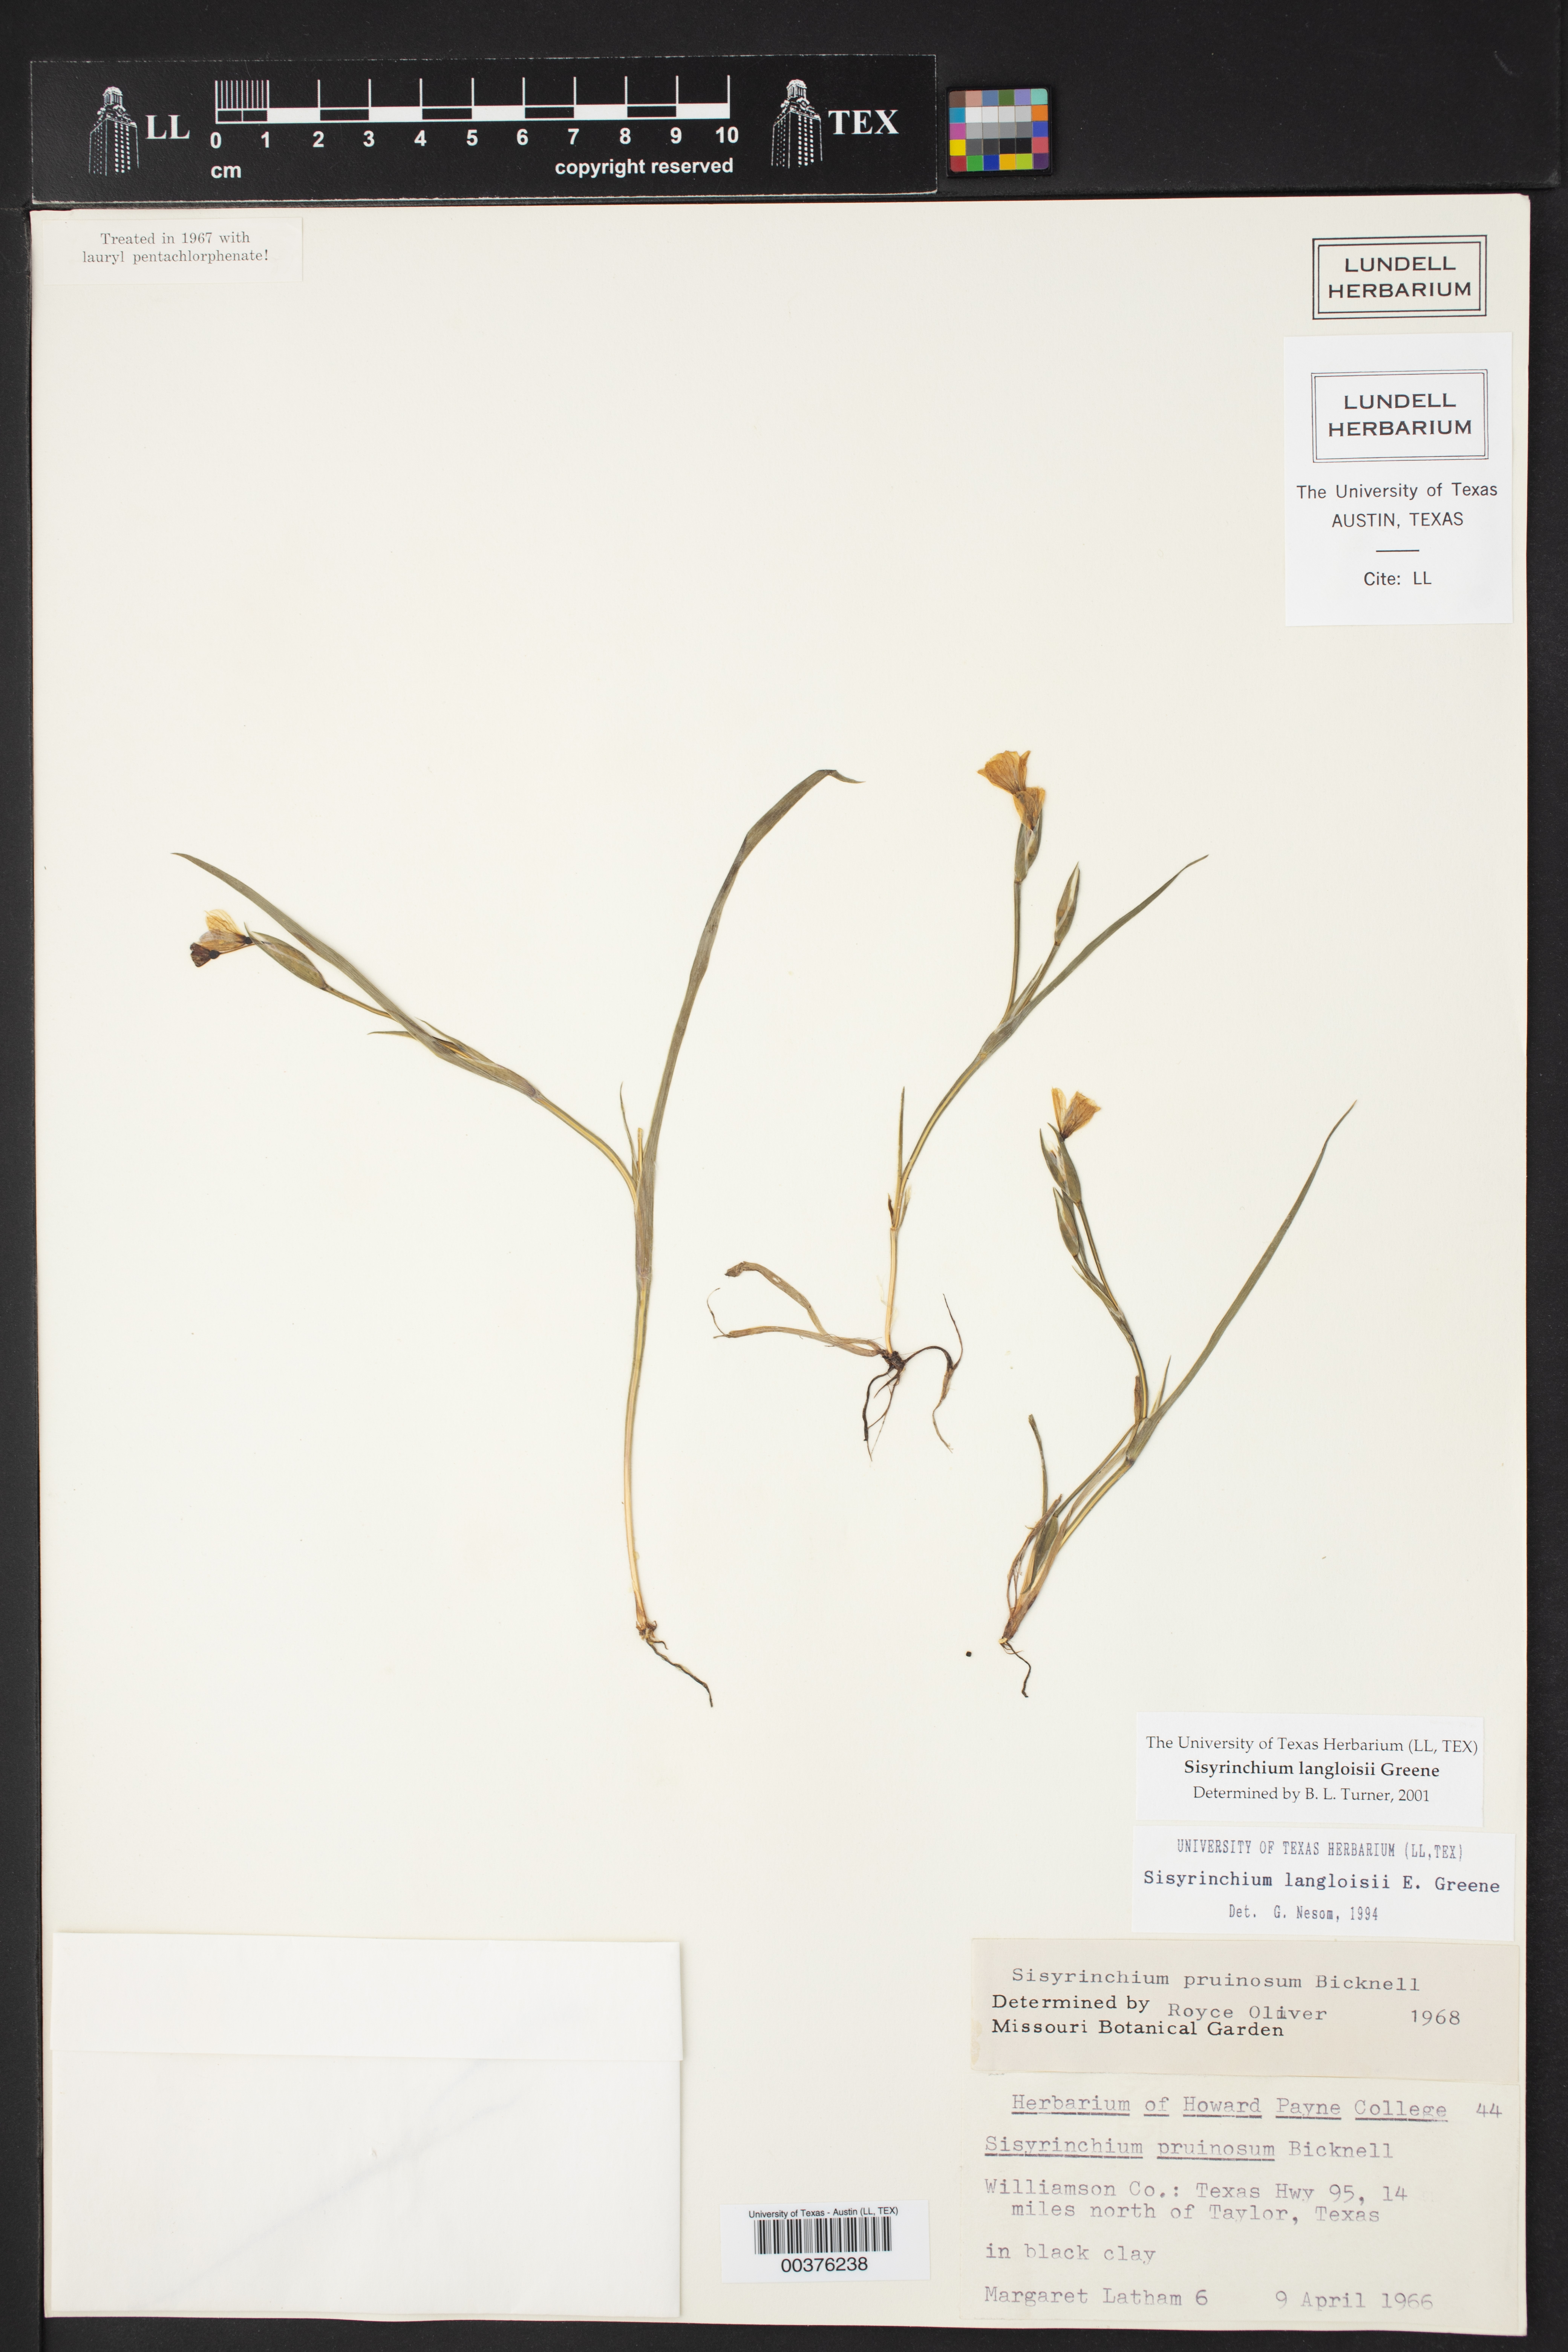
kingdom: Plantae
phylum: Tracheophyta
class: Liliopsida
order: Asparagales
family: Iridaceae
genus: Sisyrinchium
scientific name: Sisyrinchium langloisii
